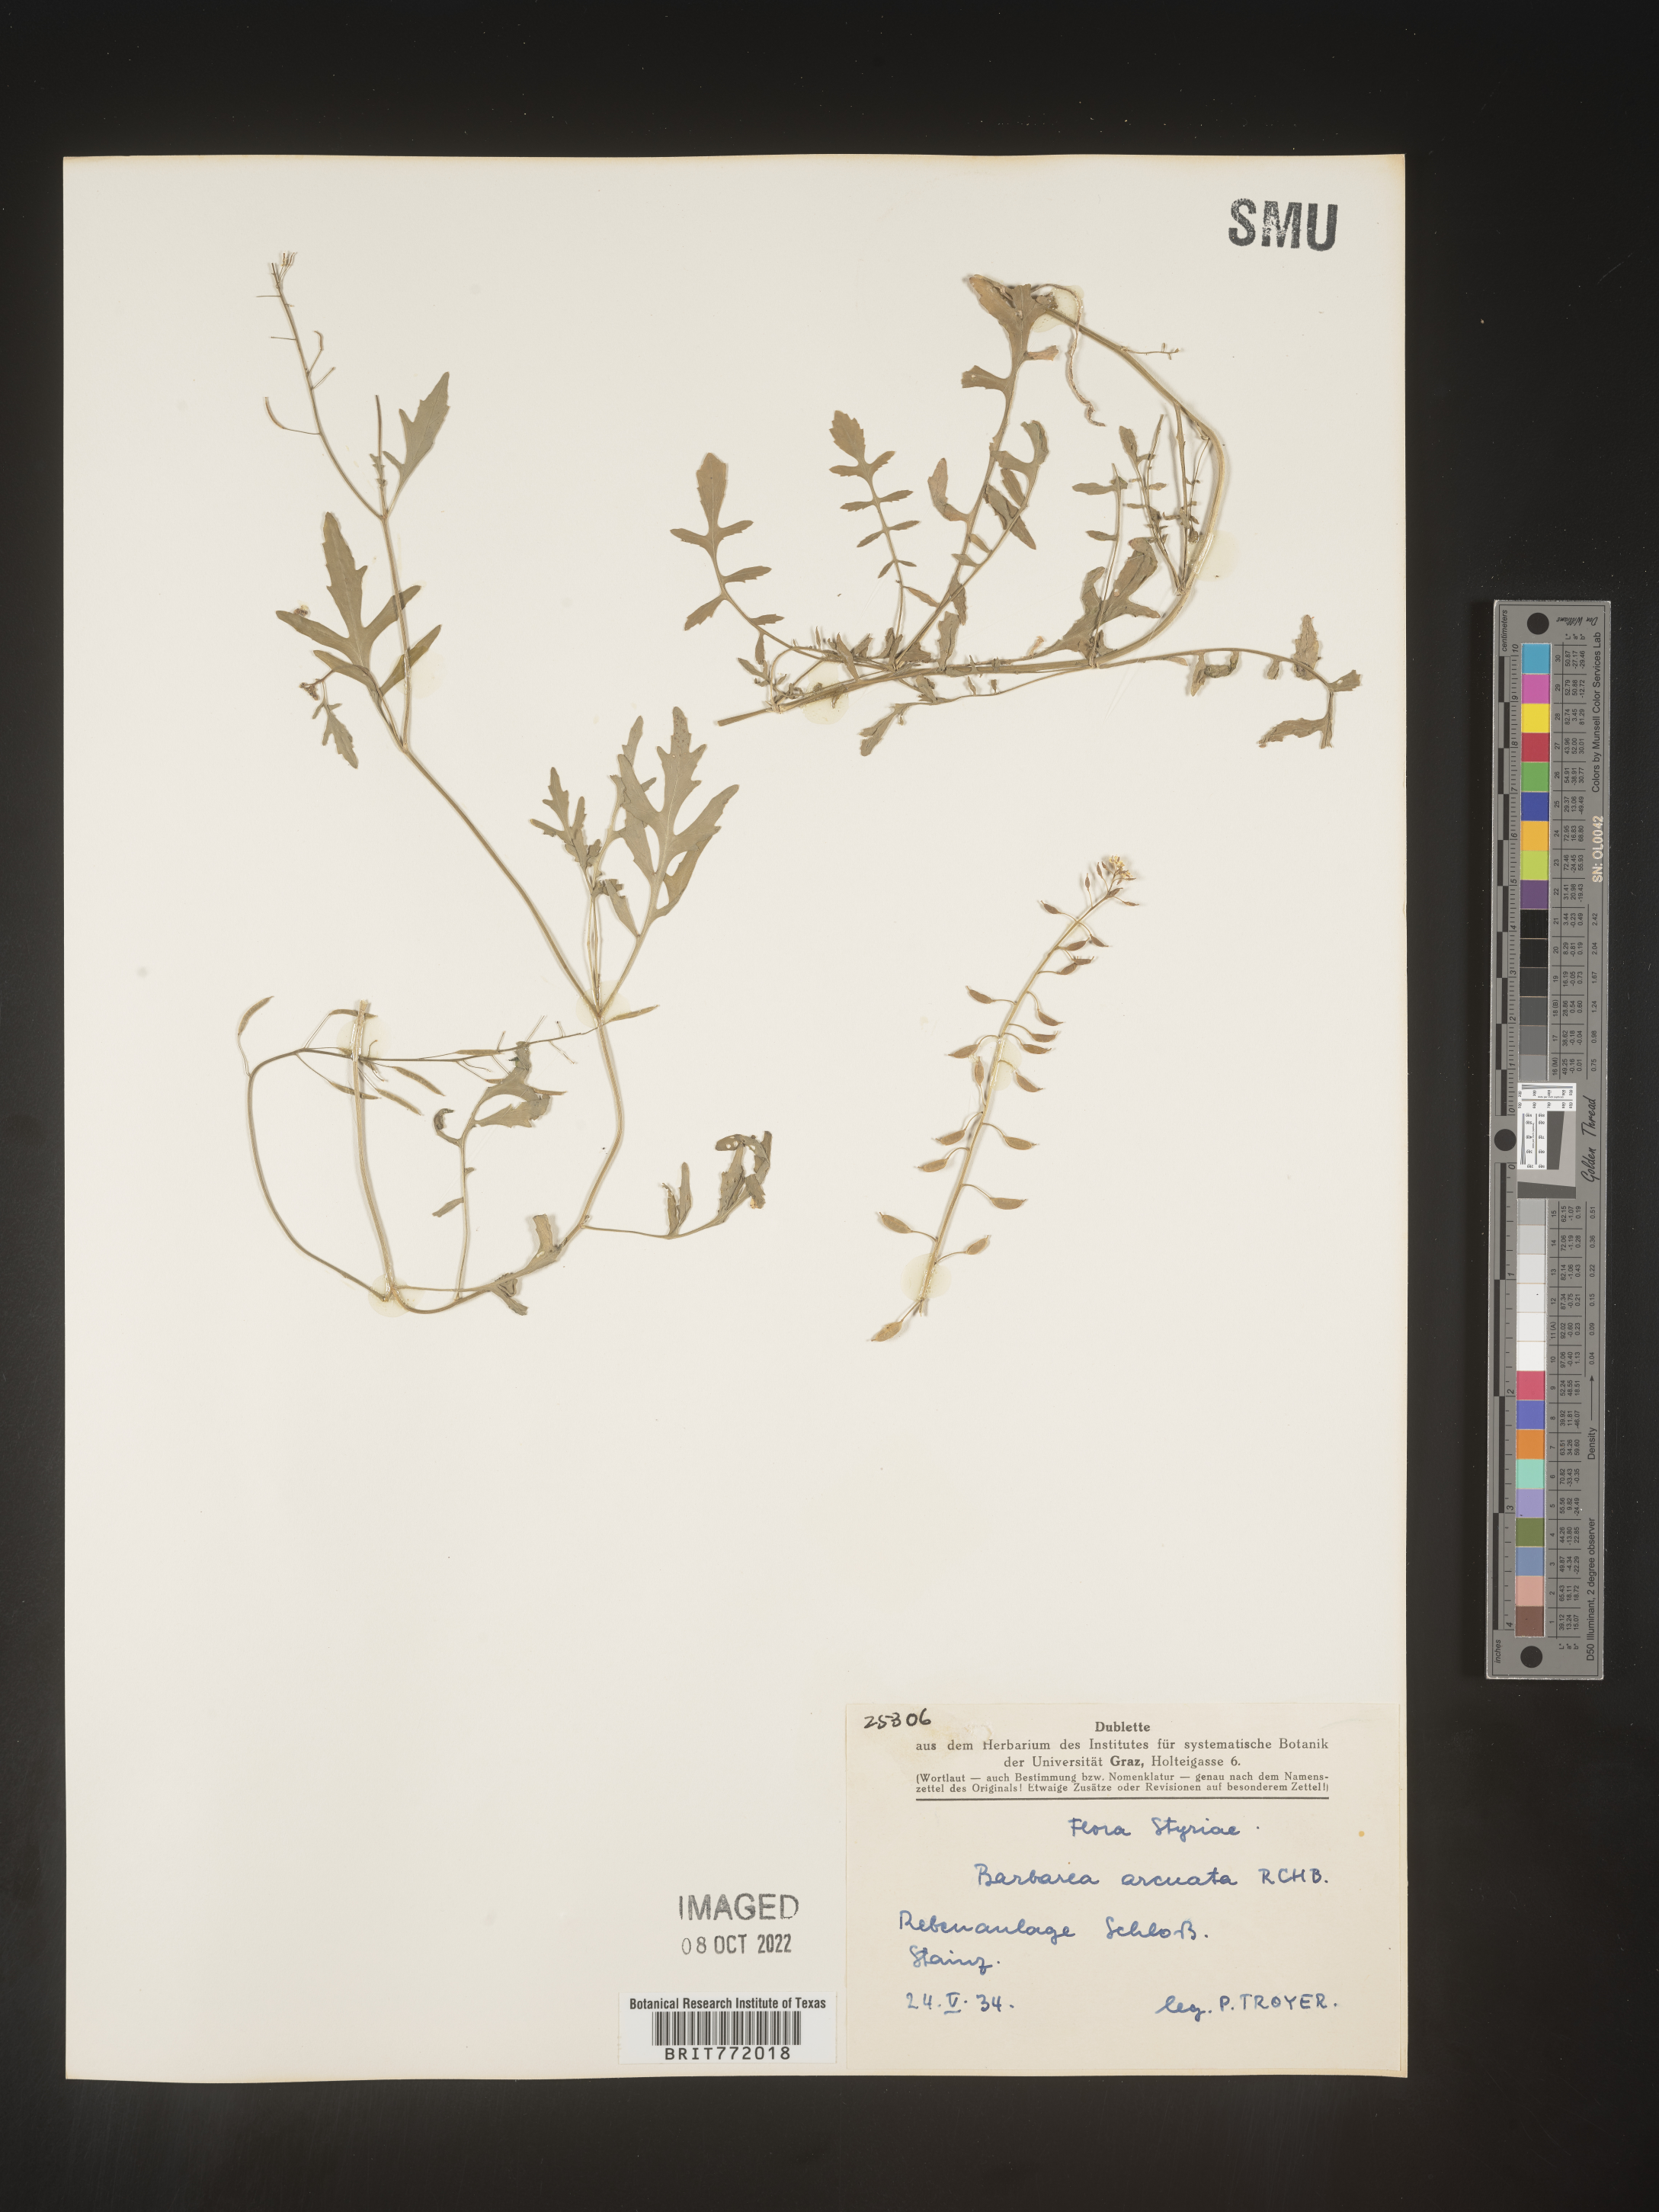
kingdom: Plantae
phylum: Tracheophyta
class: Magnoliopsida
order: Brassicales
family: Brassicaceae
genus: Barbarea
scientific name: Barbarea
